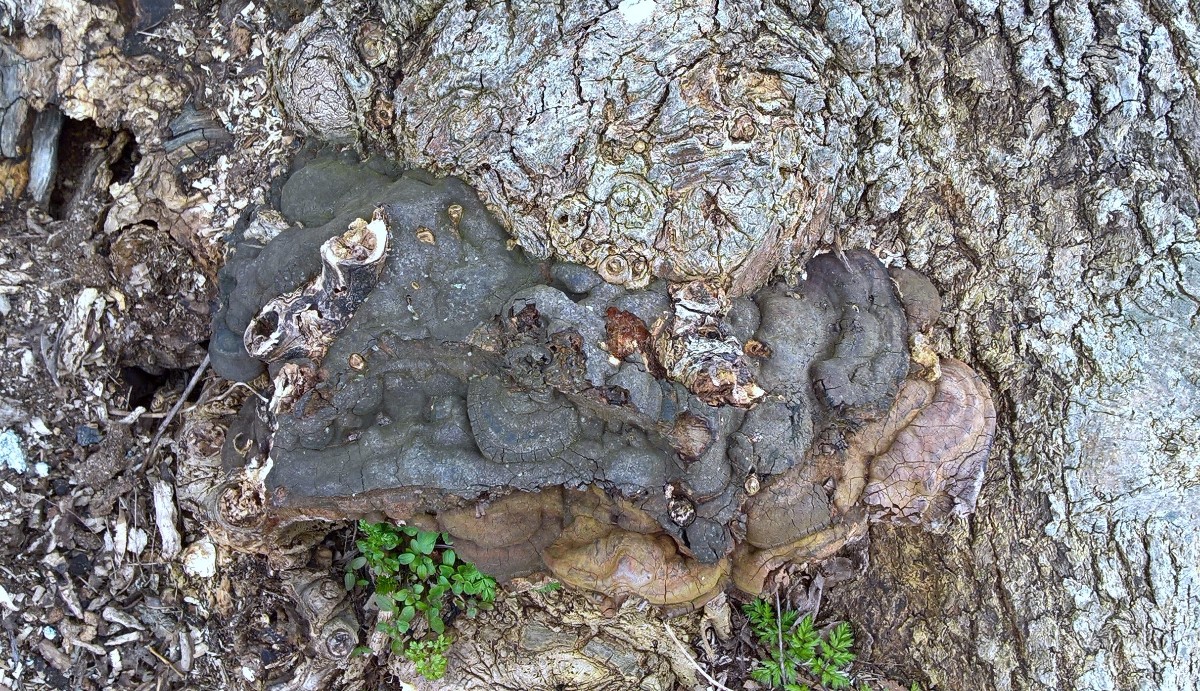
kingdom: Fungi
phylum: Basidiomycota
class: Agaricomycetes
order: Polyporales
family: Polyporaceae
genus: Ganoderma
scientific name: Ganoderma adspersum
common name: grov lakporesvamp
